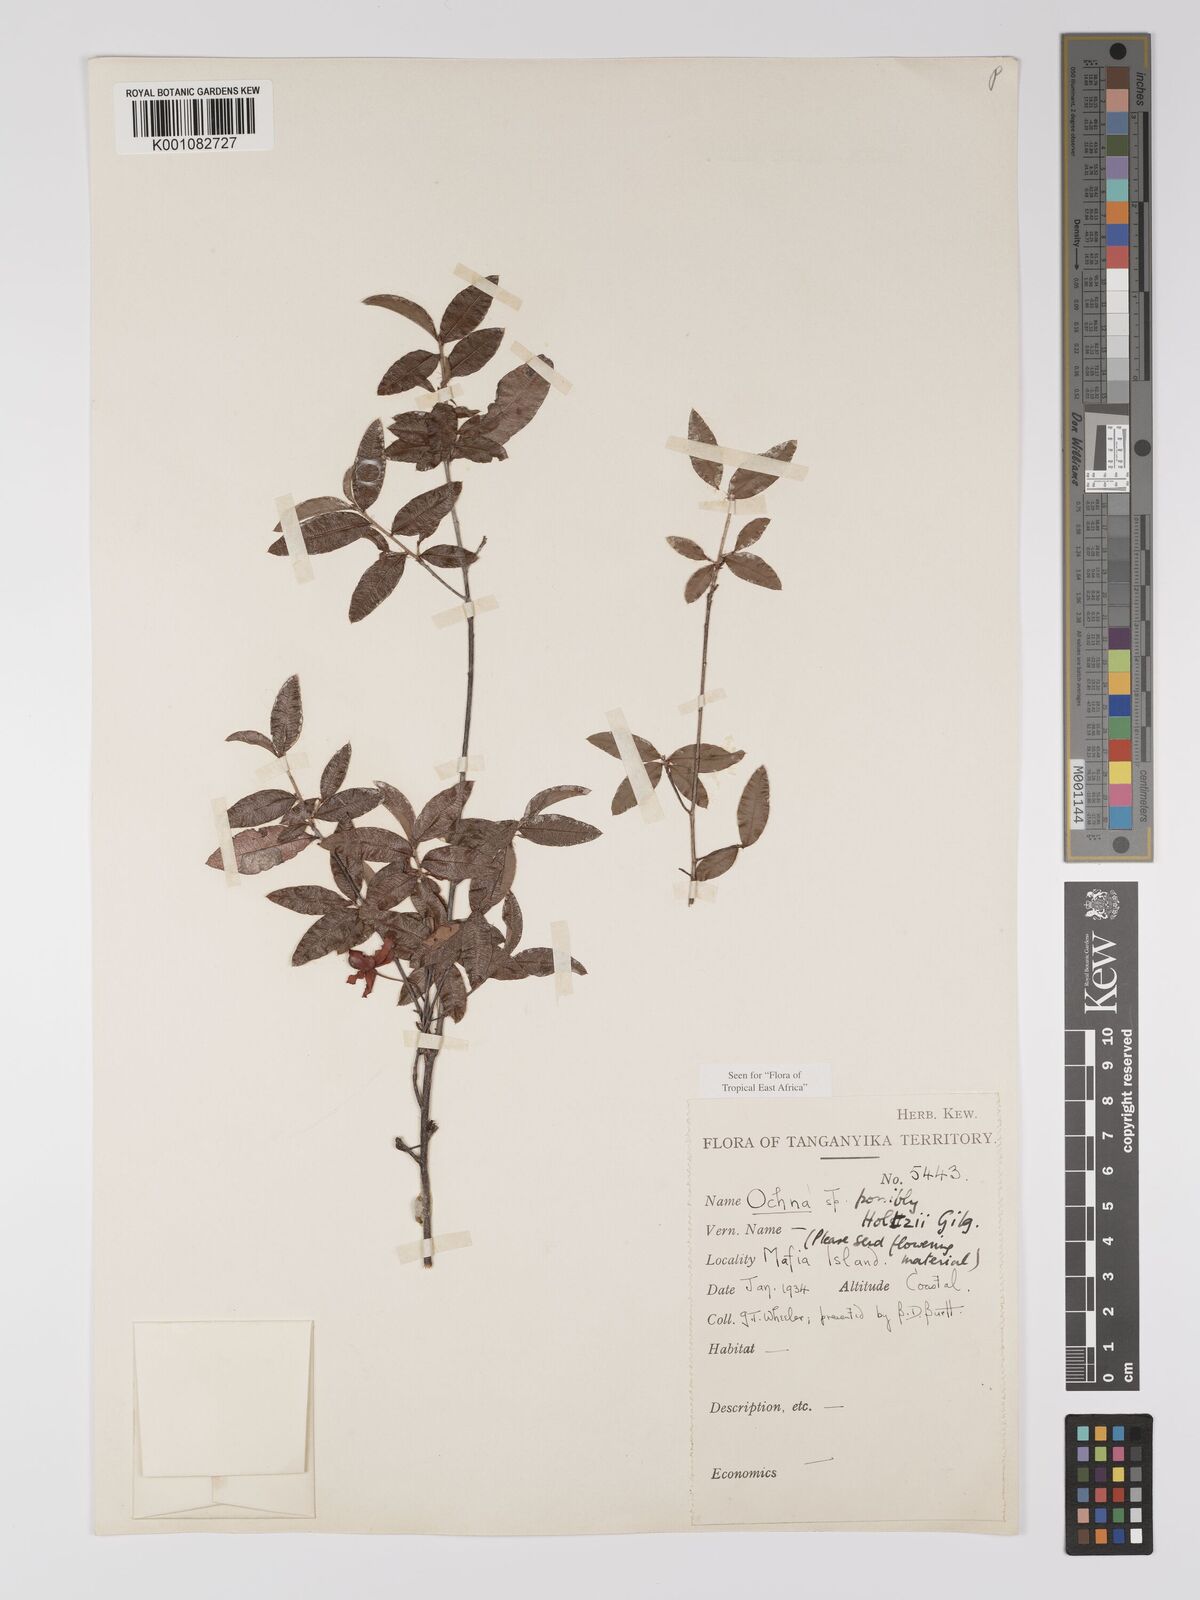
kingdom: Plantae
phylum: Tracheophyta
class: Magnoliopsida
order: Malpighiales
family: Ochnaceae
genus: Ochna
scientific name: Ochna holtzii
